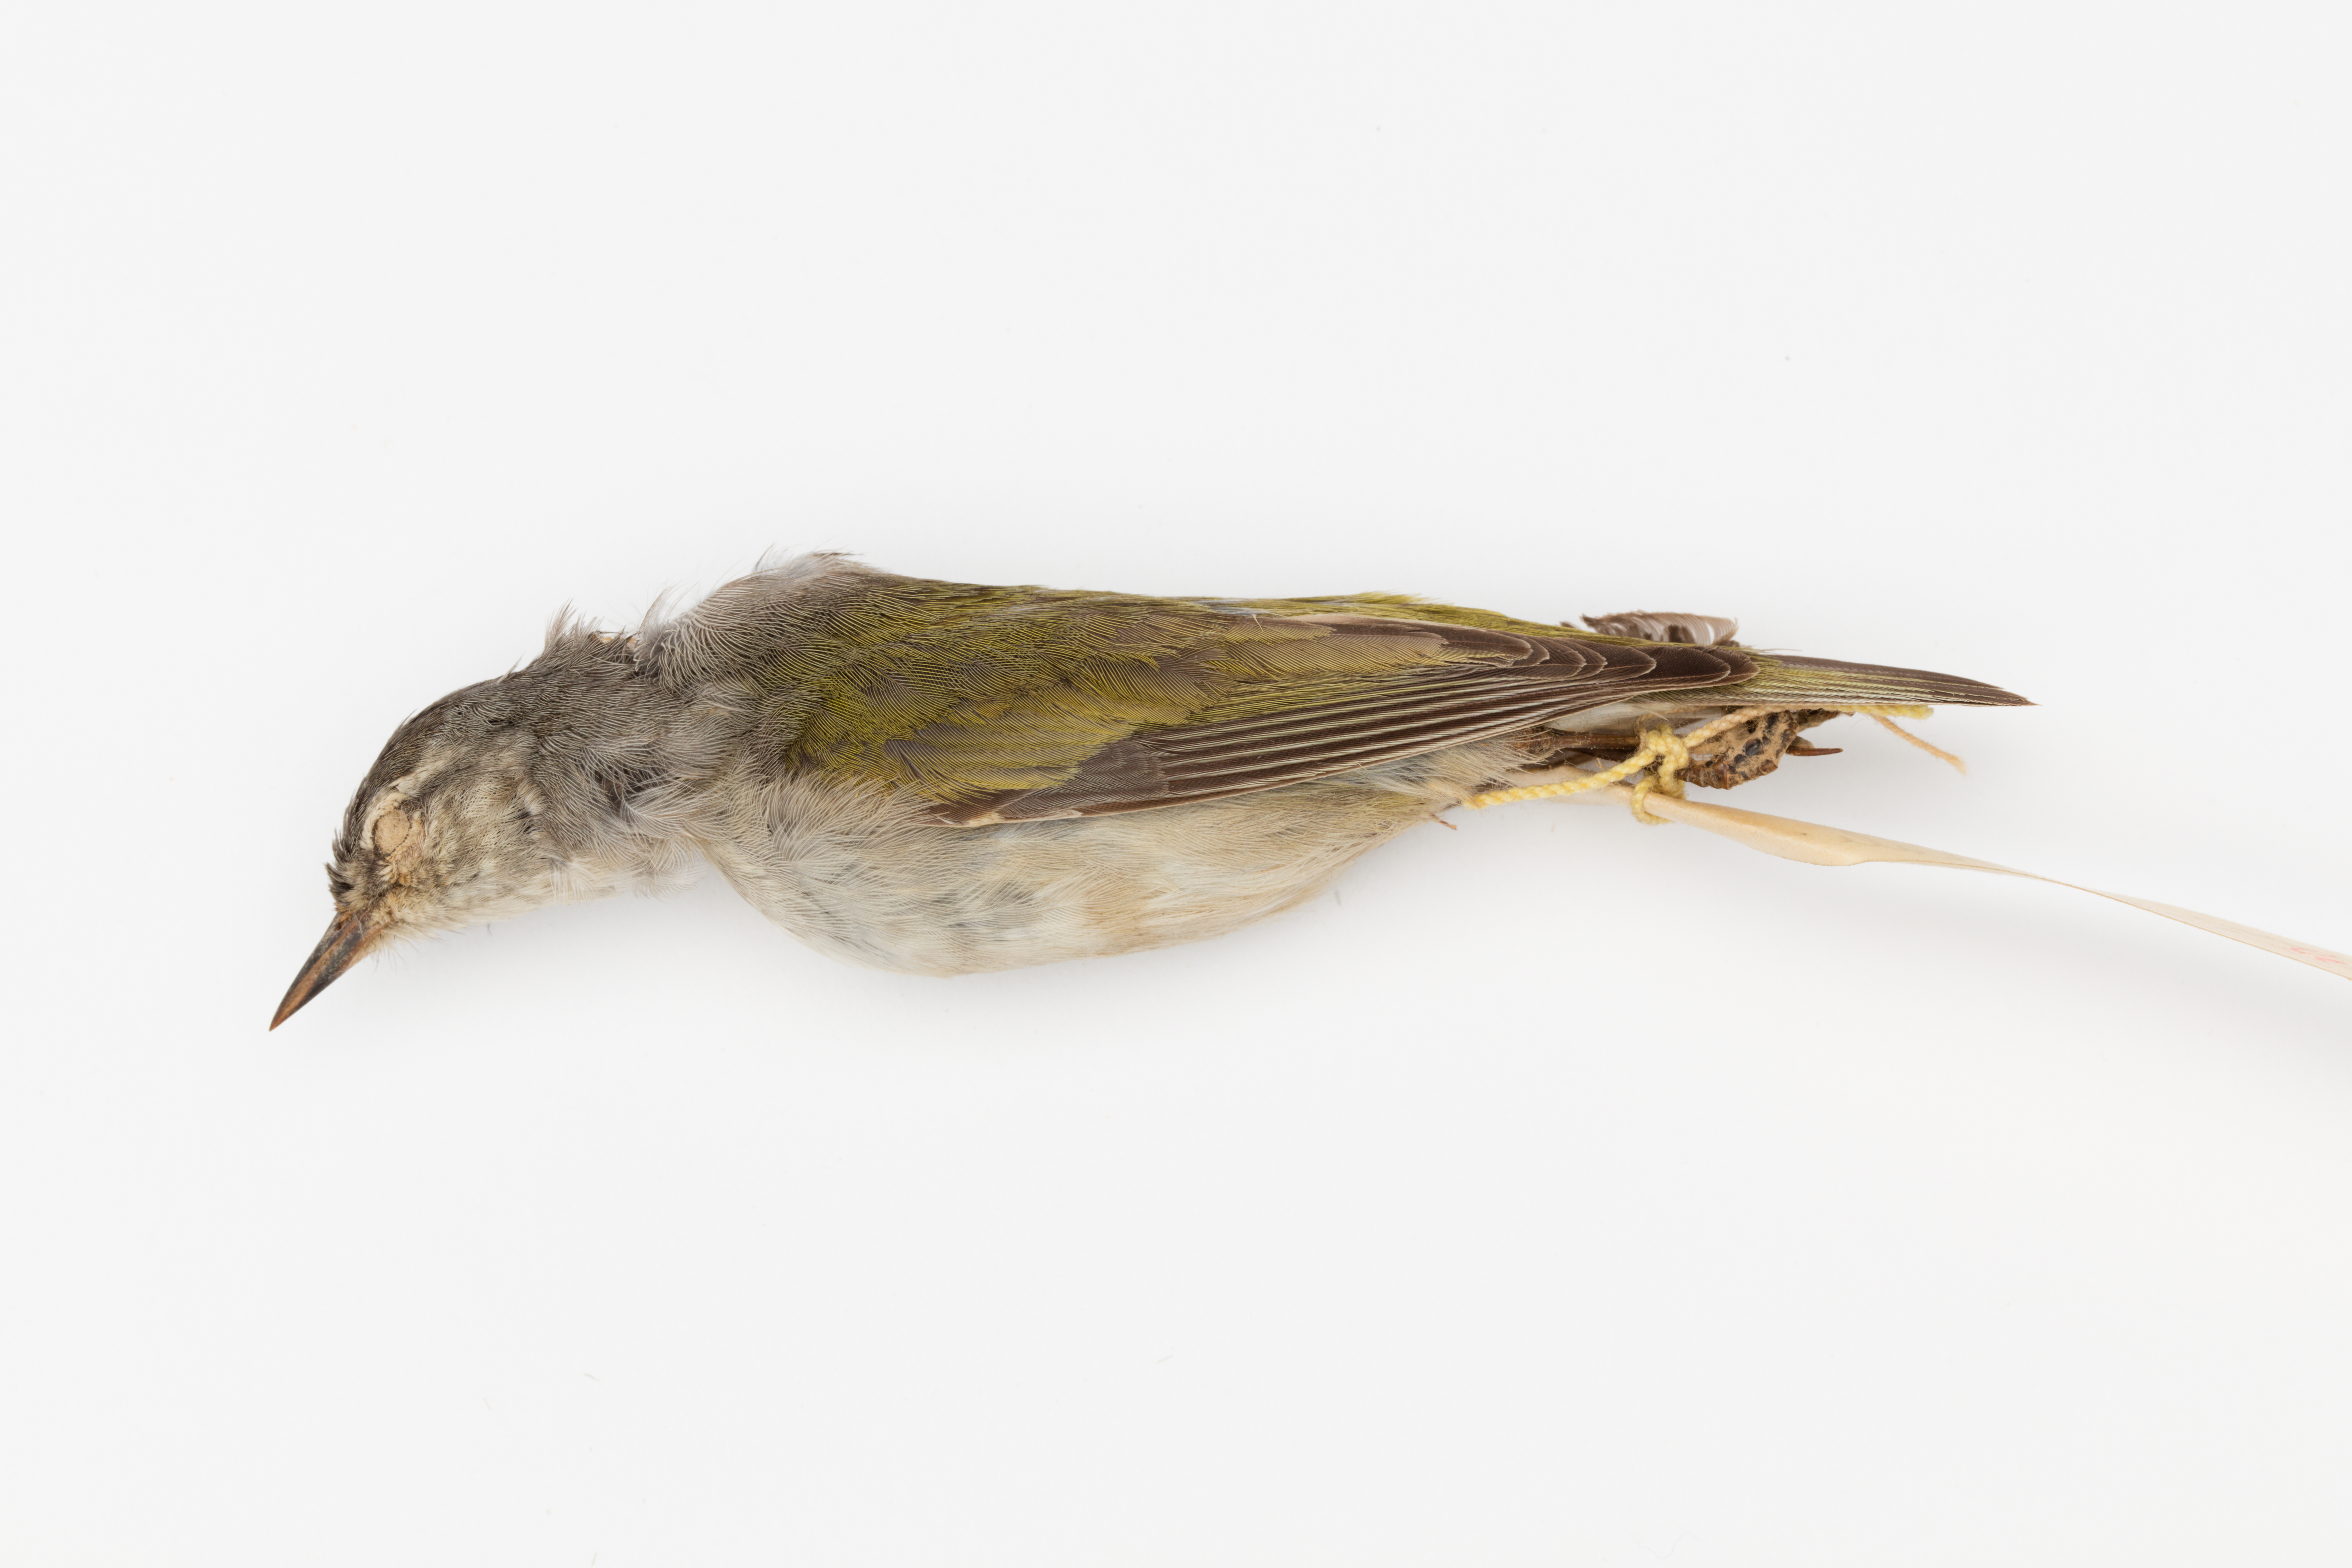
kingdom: Animalia
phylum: Chordata
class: Aves
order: Passeriformes
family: Parulidae
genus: Leiothlypis
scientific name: Leiothlypis peregrina
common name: Tennessee warbler
